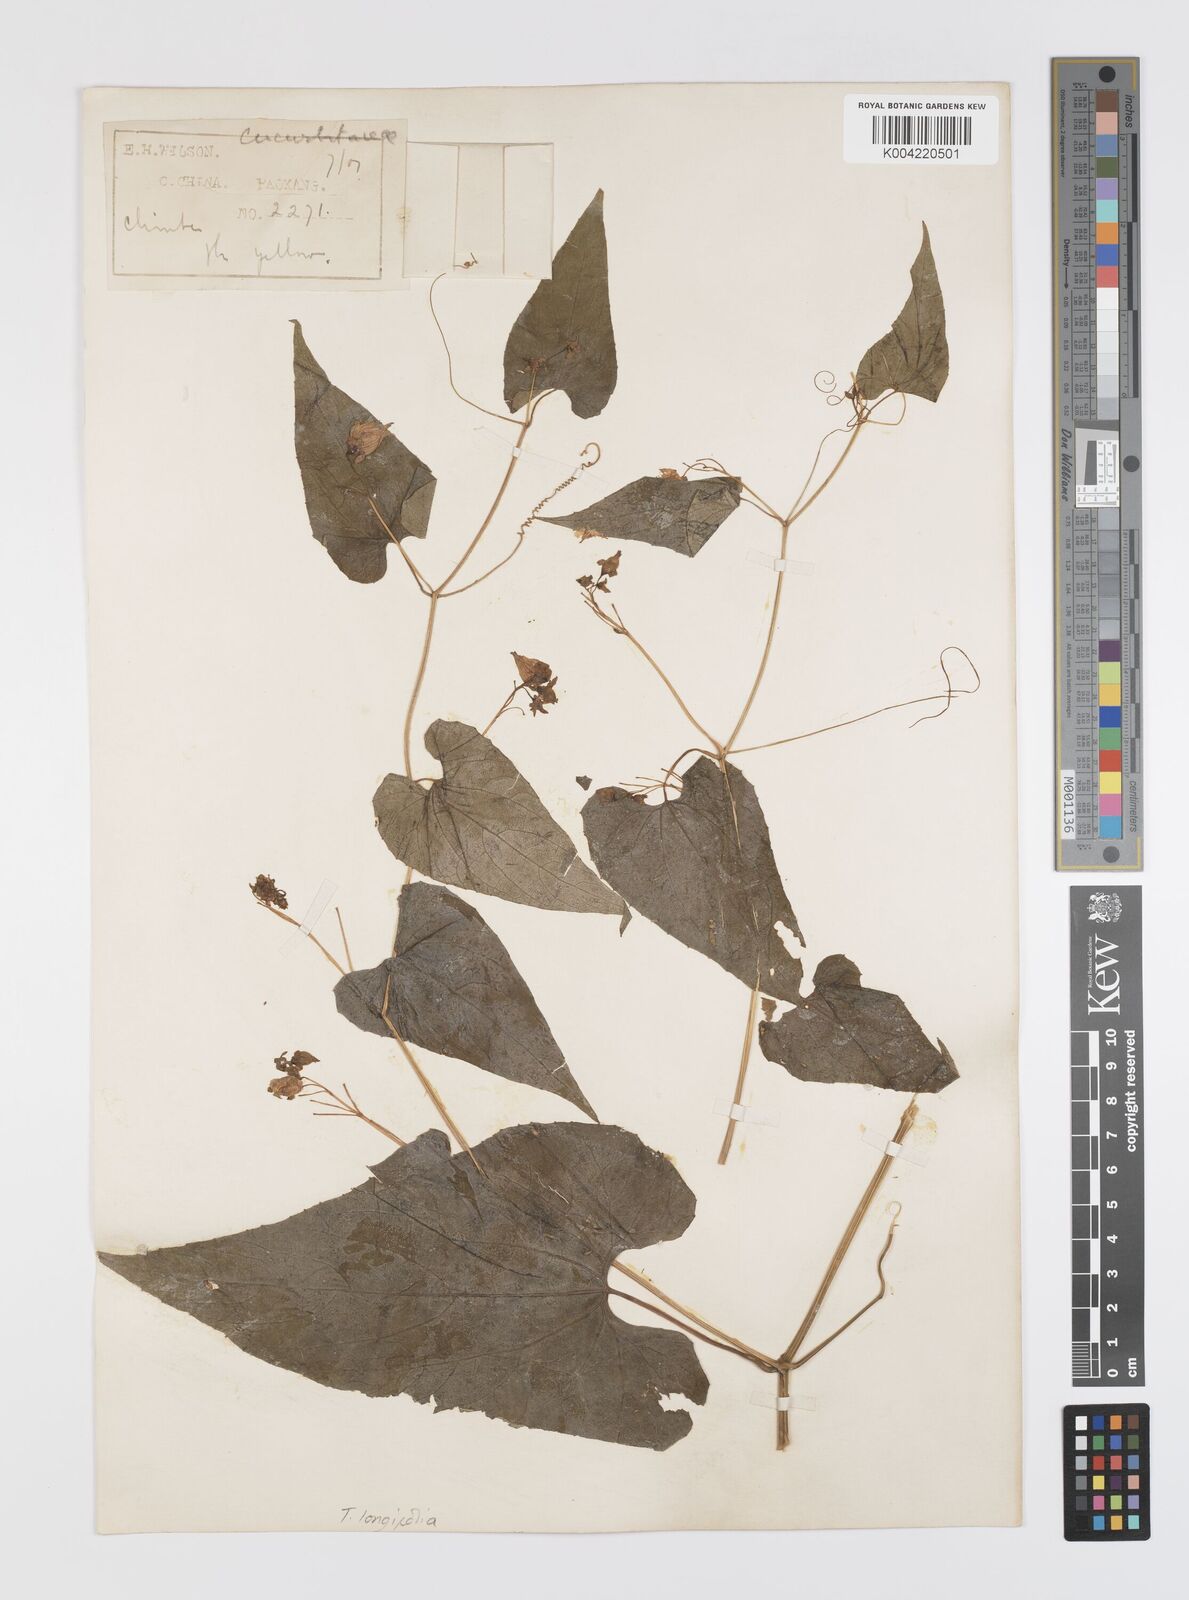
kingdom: Plantae
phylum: Tracheophyta
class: Magnoliopsida
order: Cucurbitales
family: Cucurbitaceae
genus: Thladiantha
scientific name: Thladiantha longifolia
